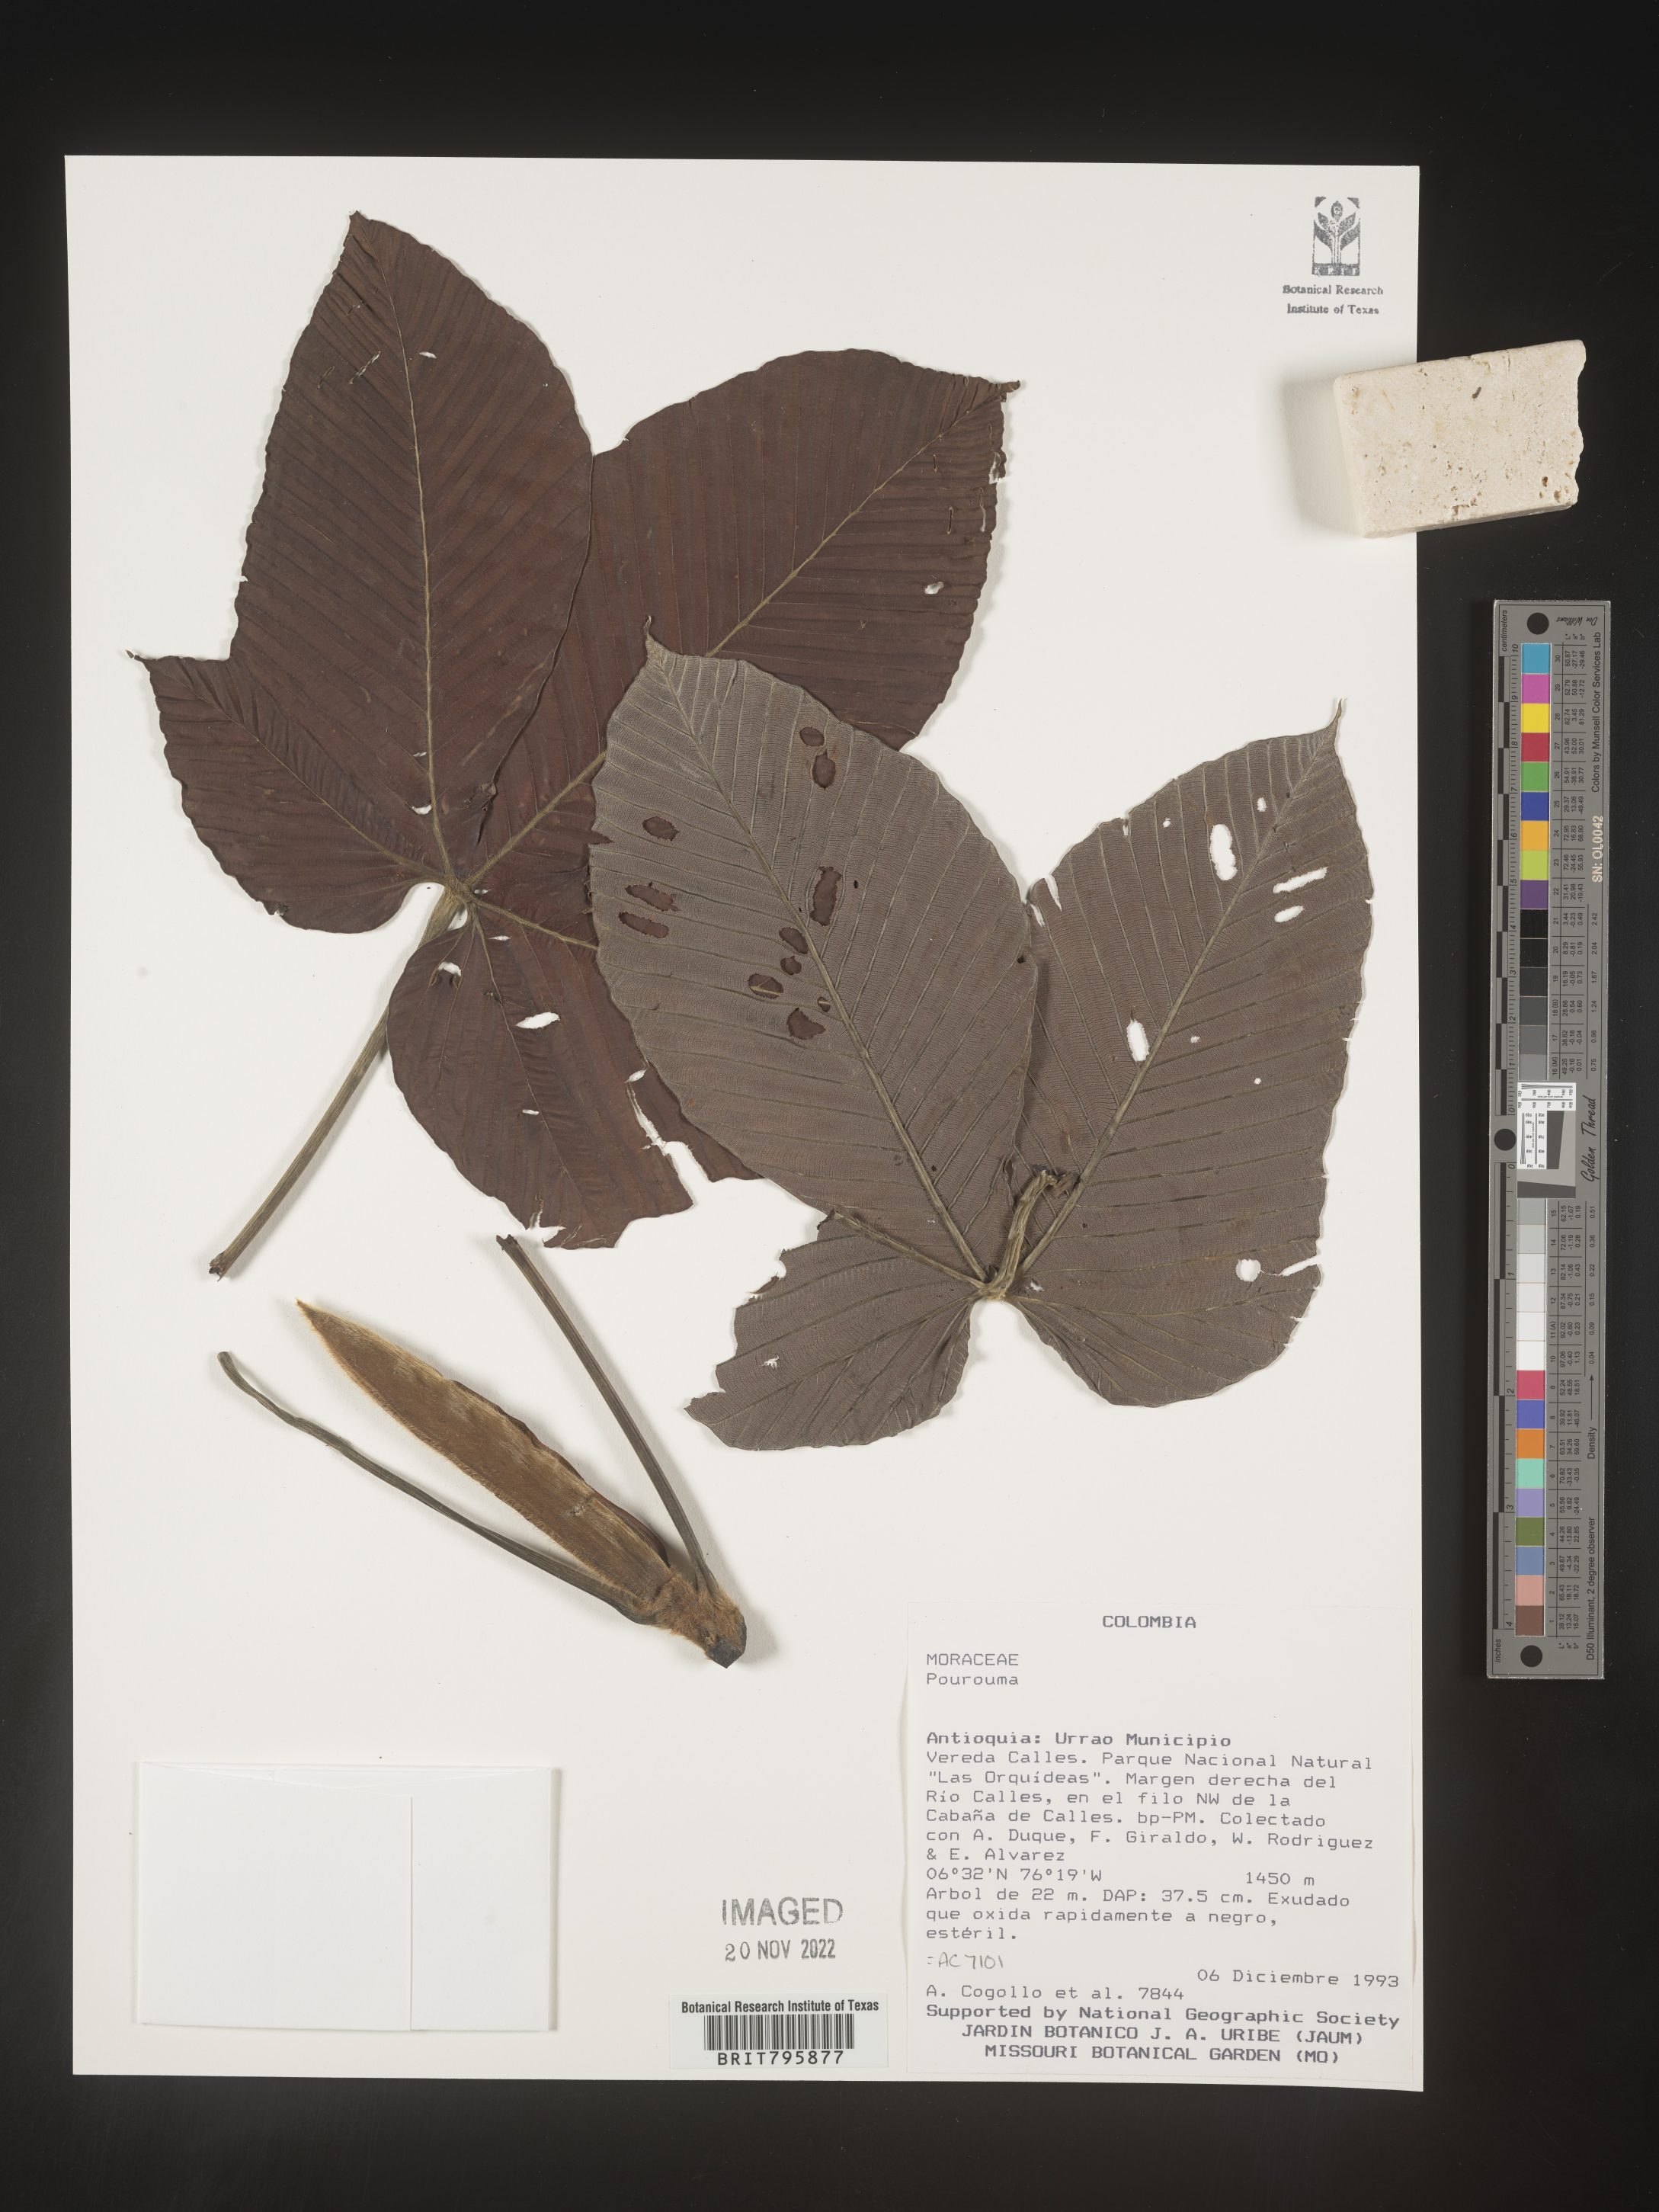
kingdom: Plantae
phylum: Tracheophyta
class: Magnoliopsida
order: Rosales
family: Urticaceae
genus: Pourouma
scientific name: Pourouma
